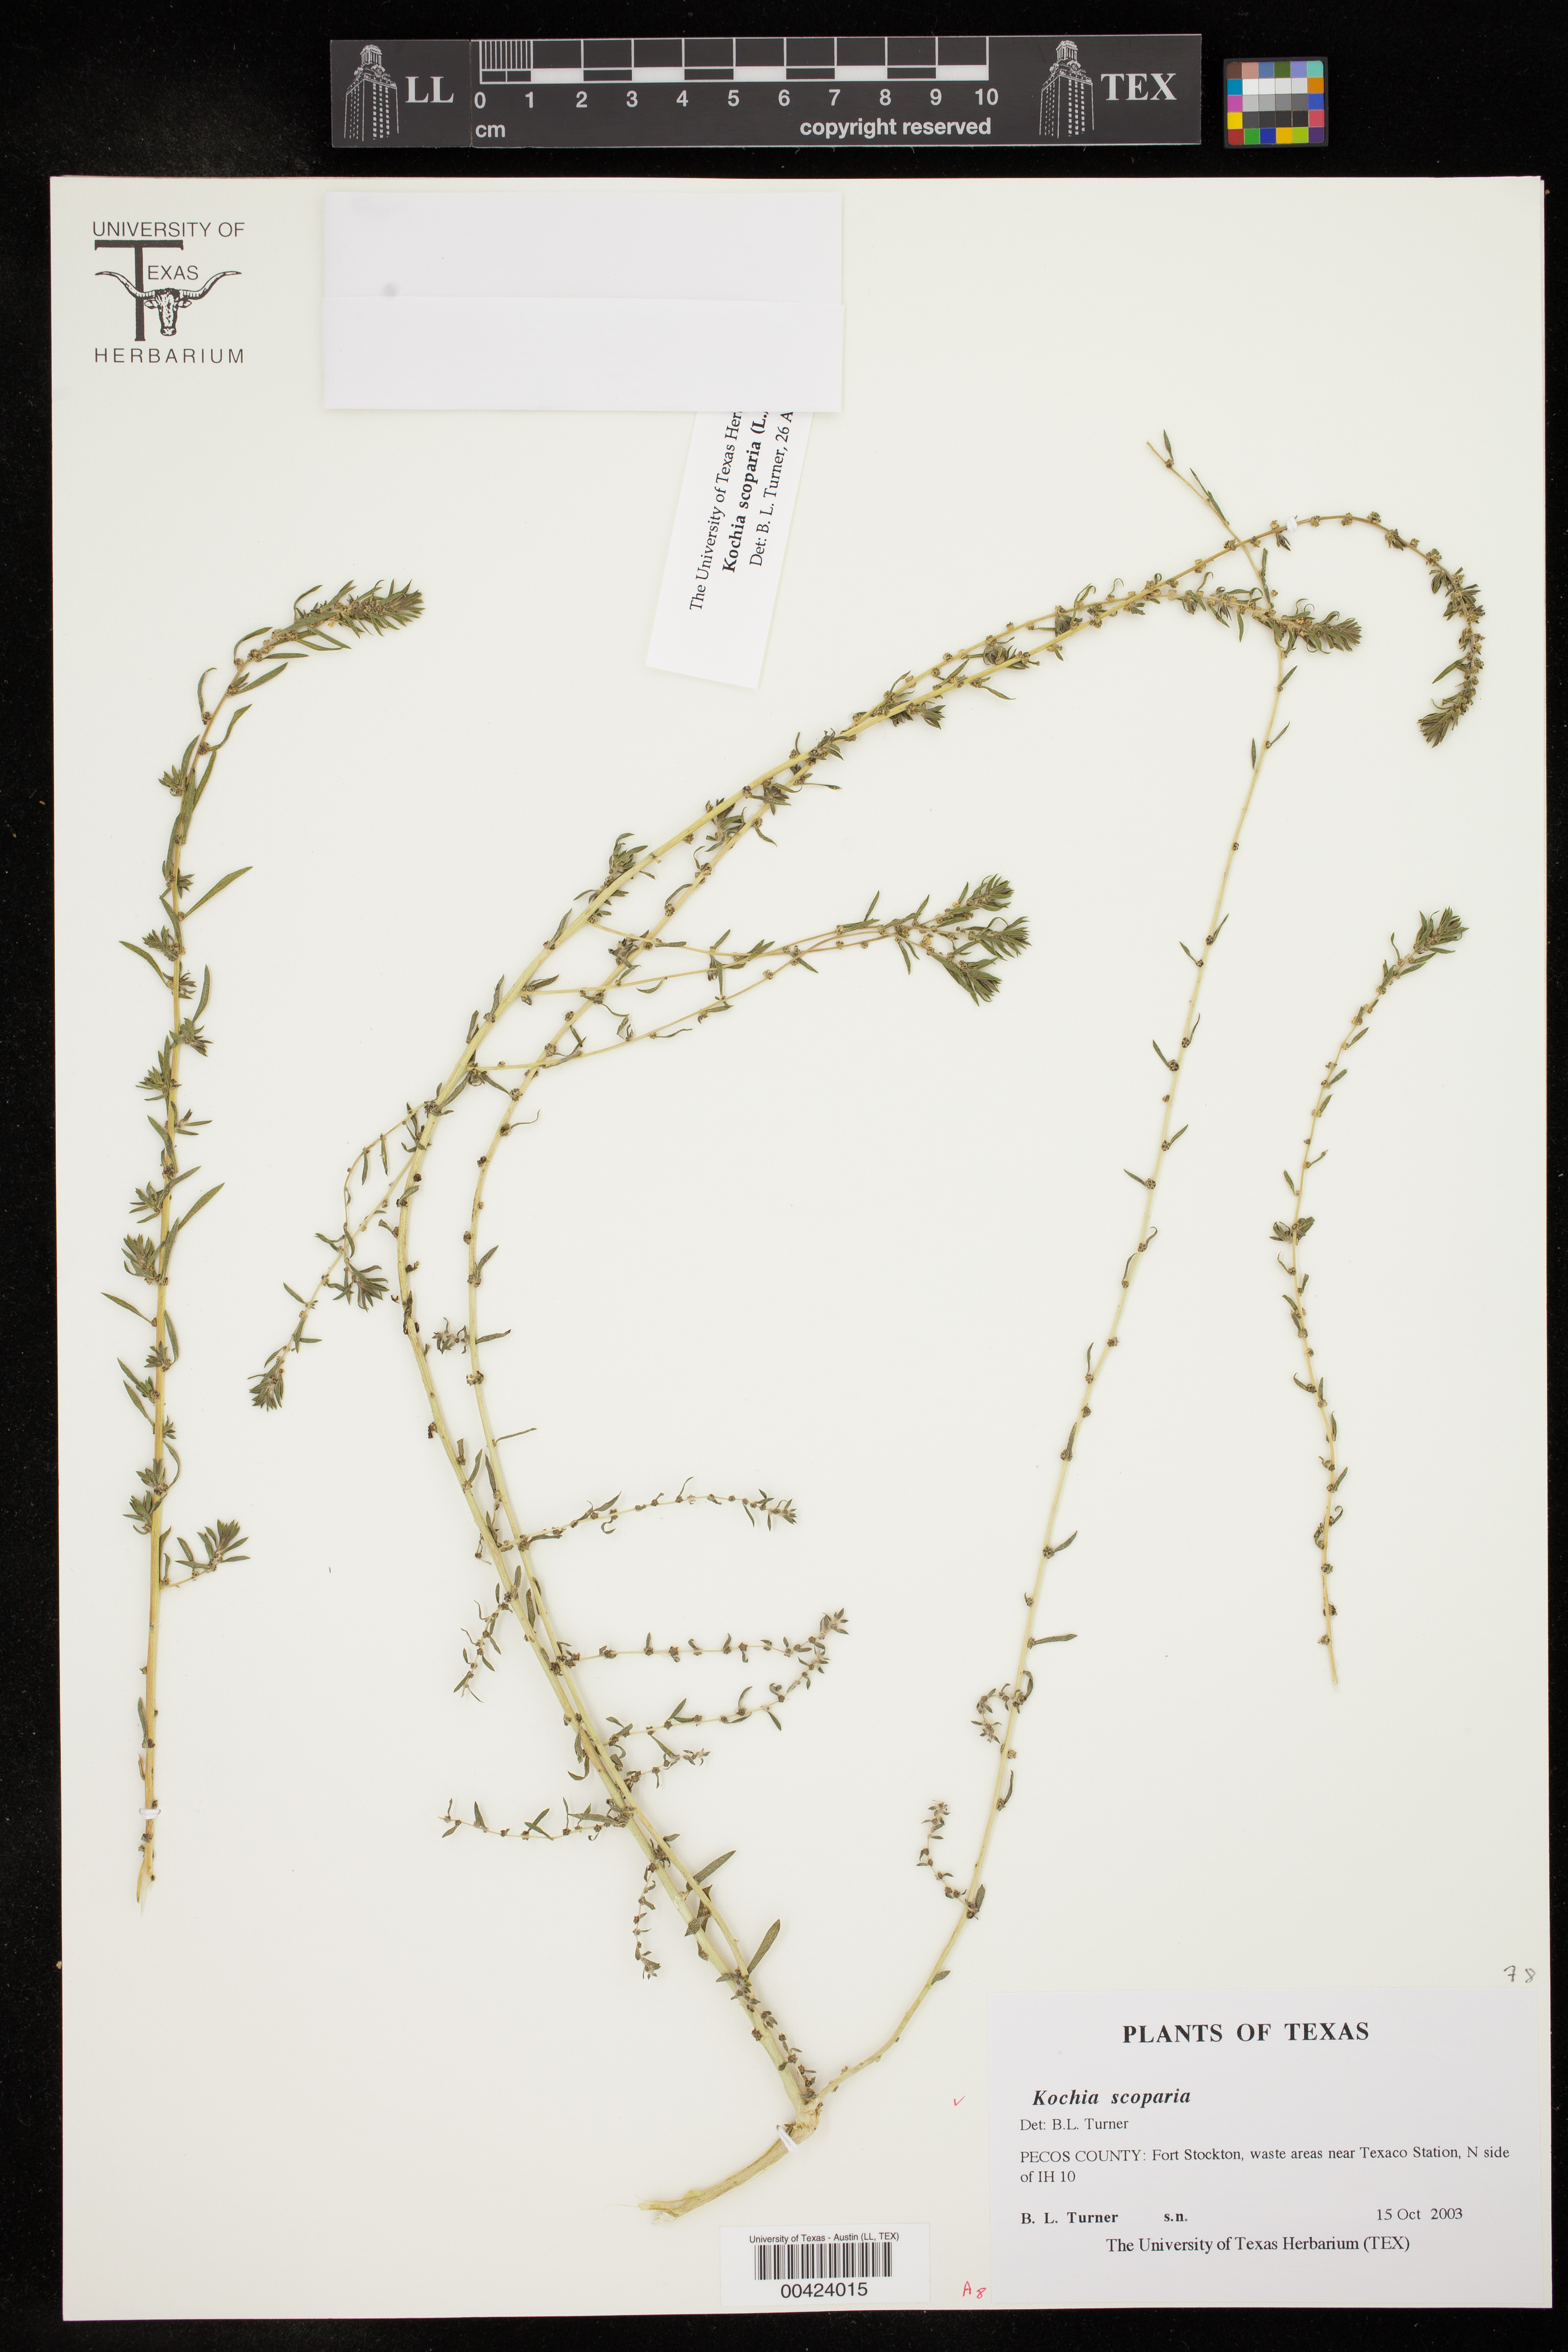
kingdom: Plantae
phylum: Tracheophyta
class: Magnoliopsida
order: Caryophyllales
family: Amaranthaceae
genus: Bassia
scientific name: Bassia scoparia
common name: Belvedere
